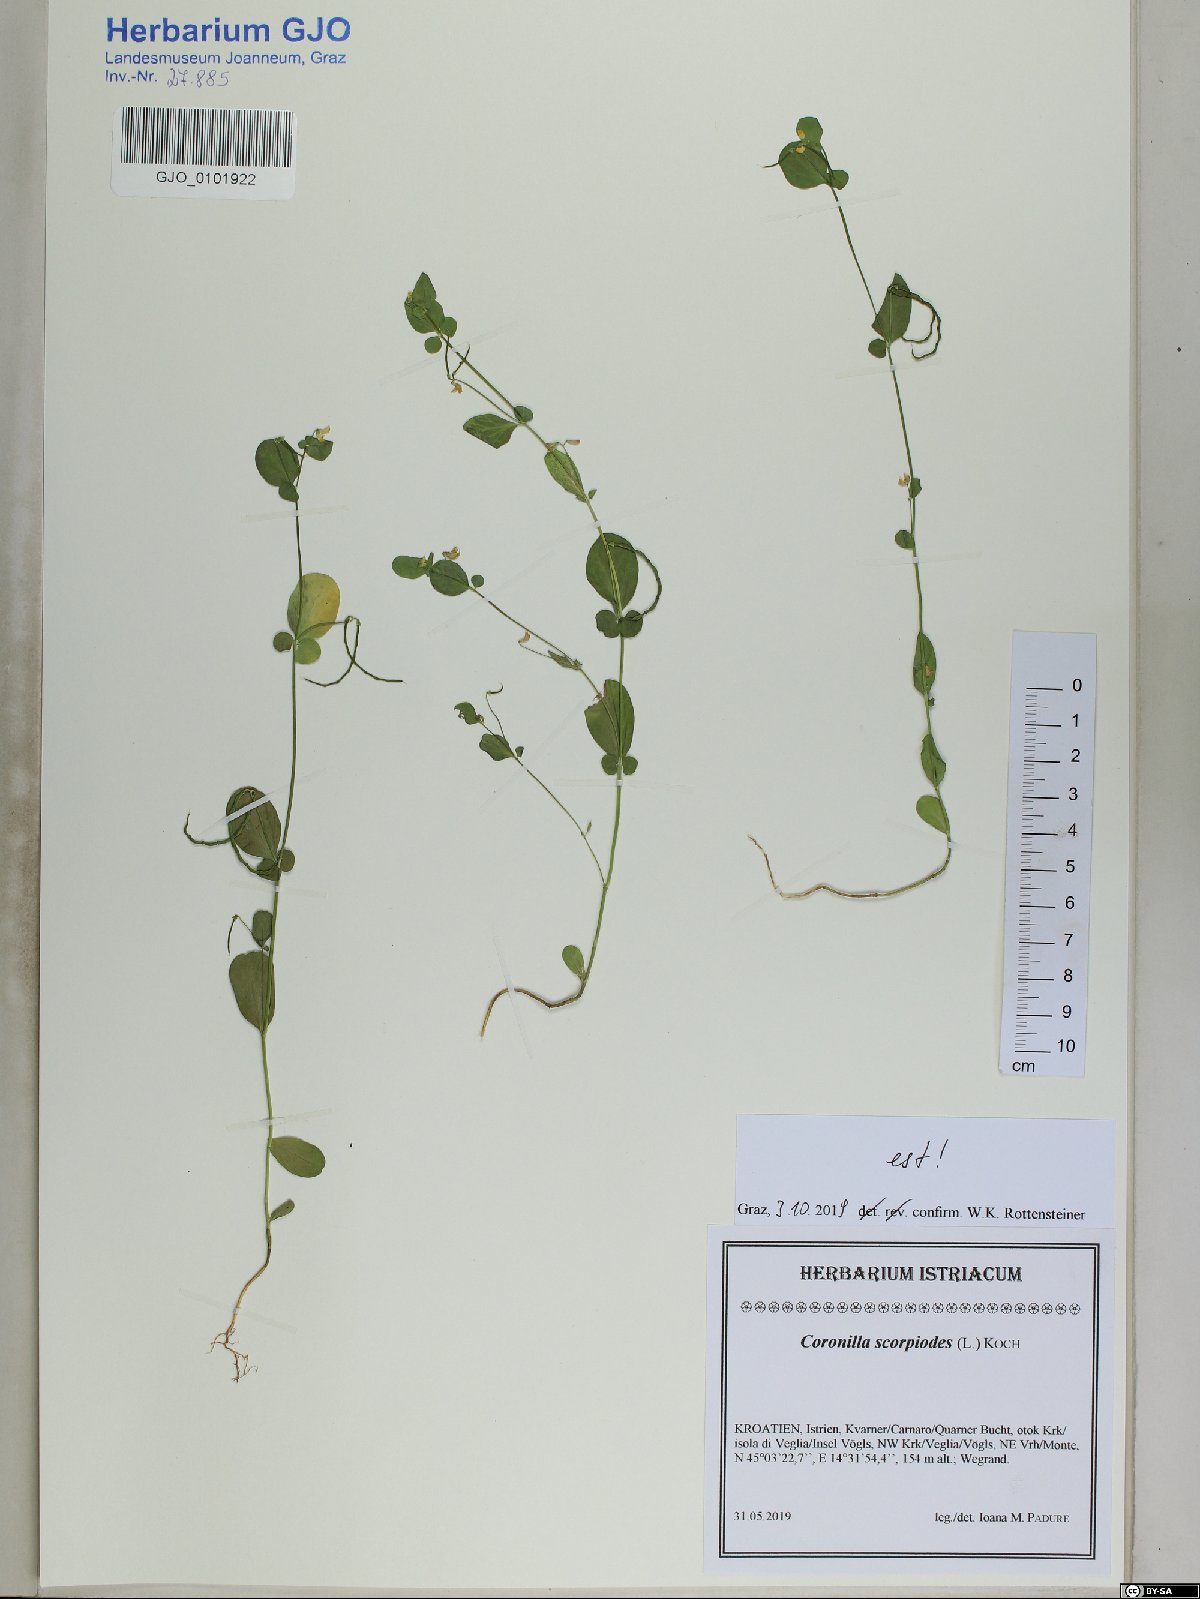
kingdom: Plantae
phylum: Tracheophyta
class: Magnoliopsida
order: Fabales
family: Fabaceae
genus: Coronilla
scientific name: Coronilla scorpioides
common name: Annual scorpion-vetch
